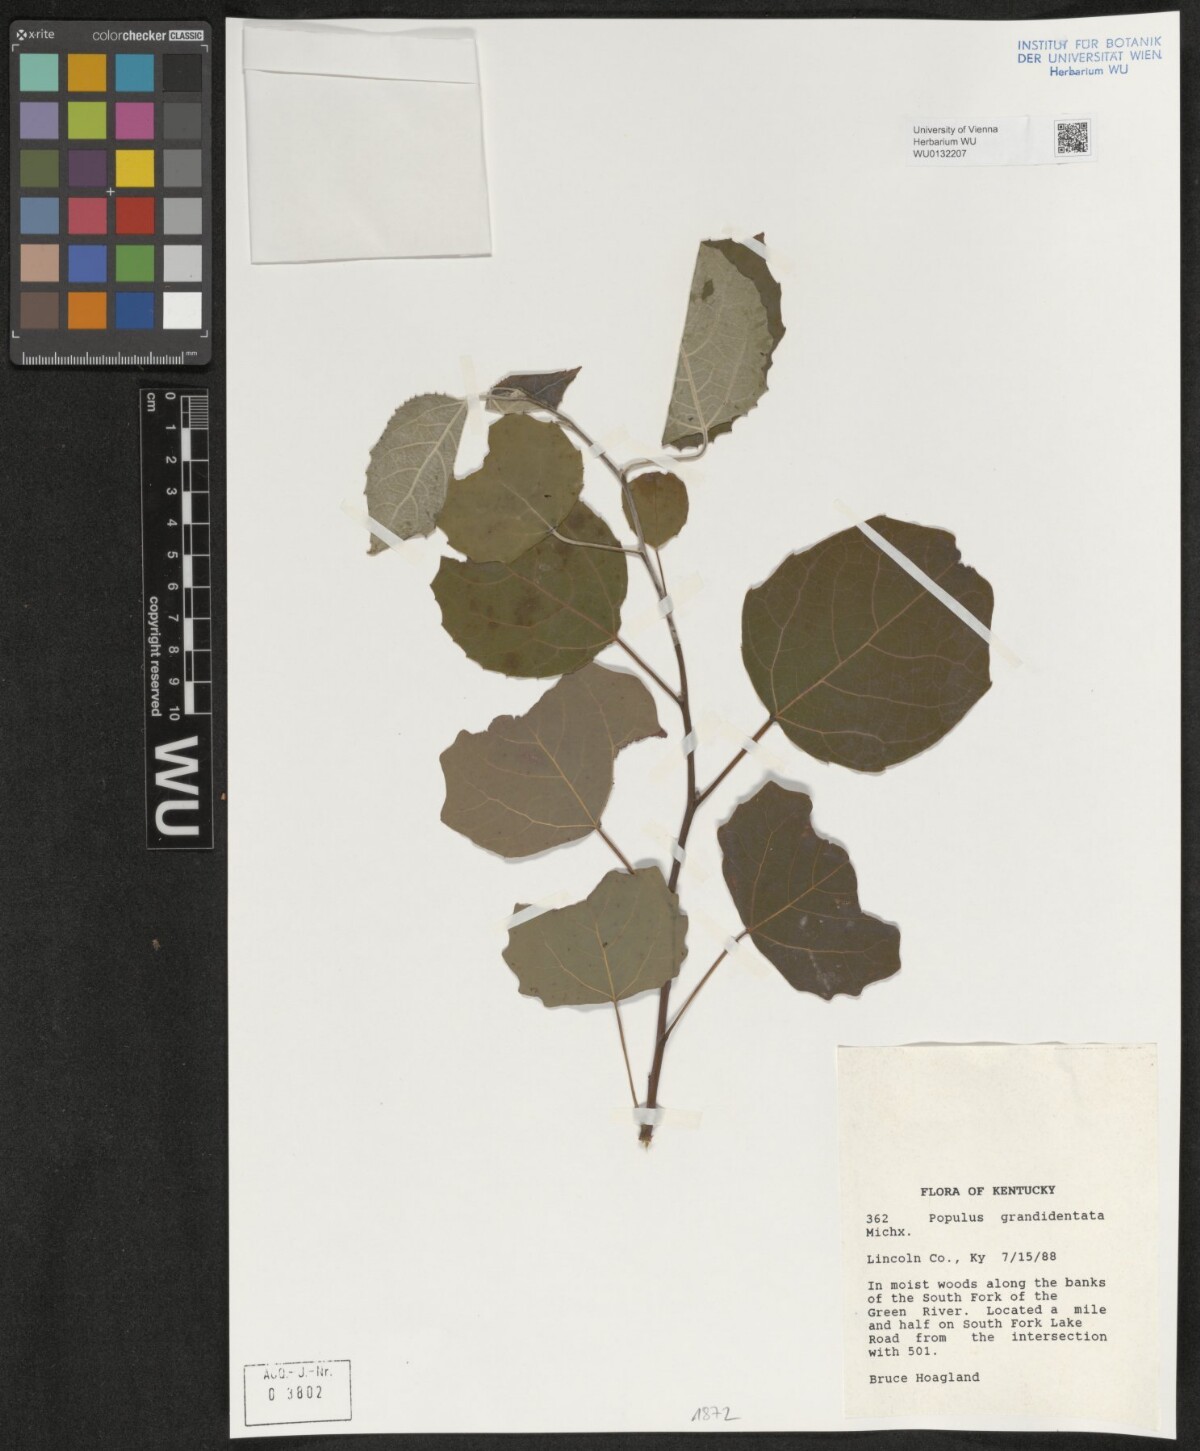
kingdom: Plantae
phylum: Tracheophyta
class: Magnoliopsida
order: Malpighiales
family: Salicaceae
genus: Populus
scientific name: Populus grandidentata
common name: Bigtooth aspen
